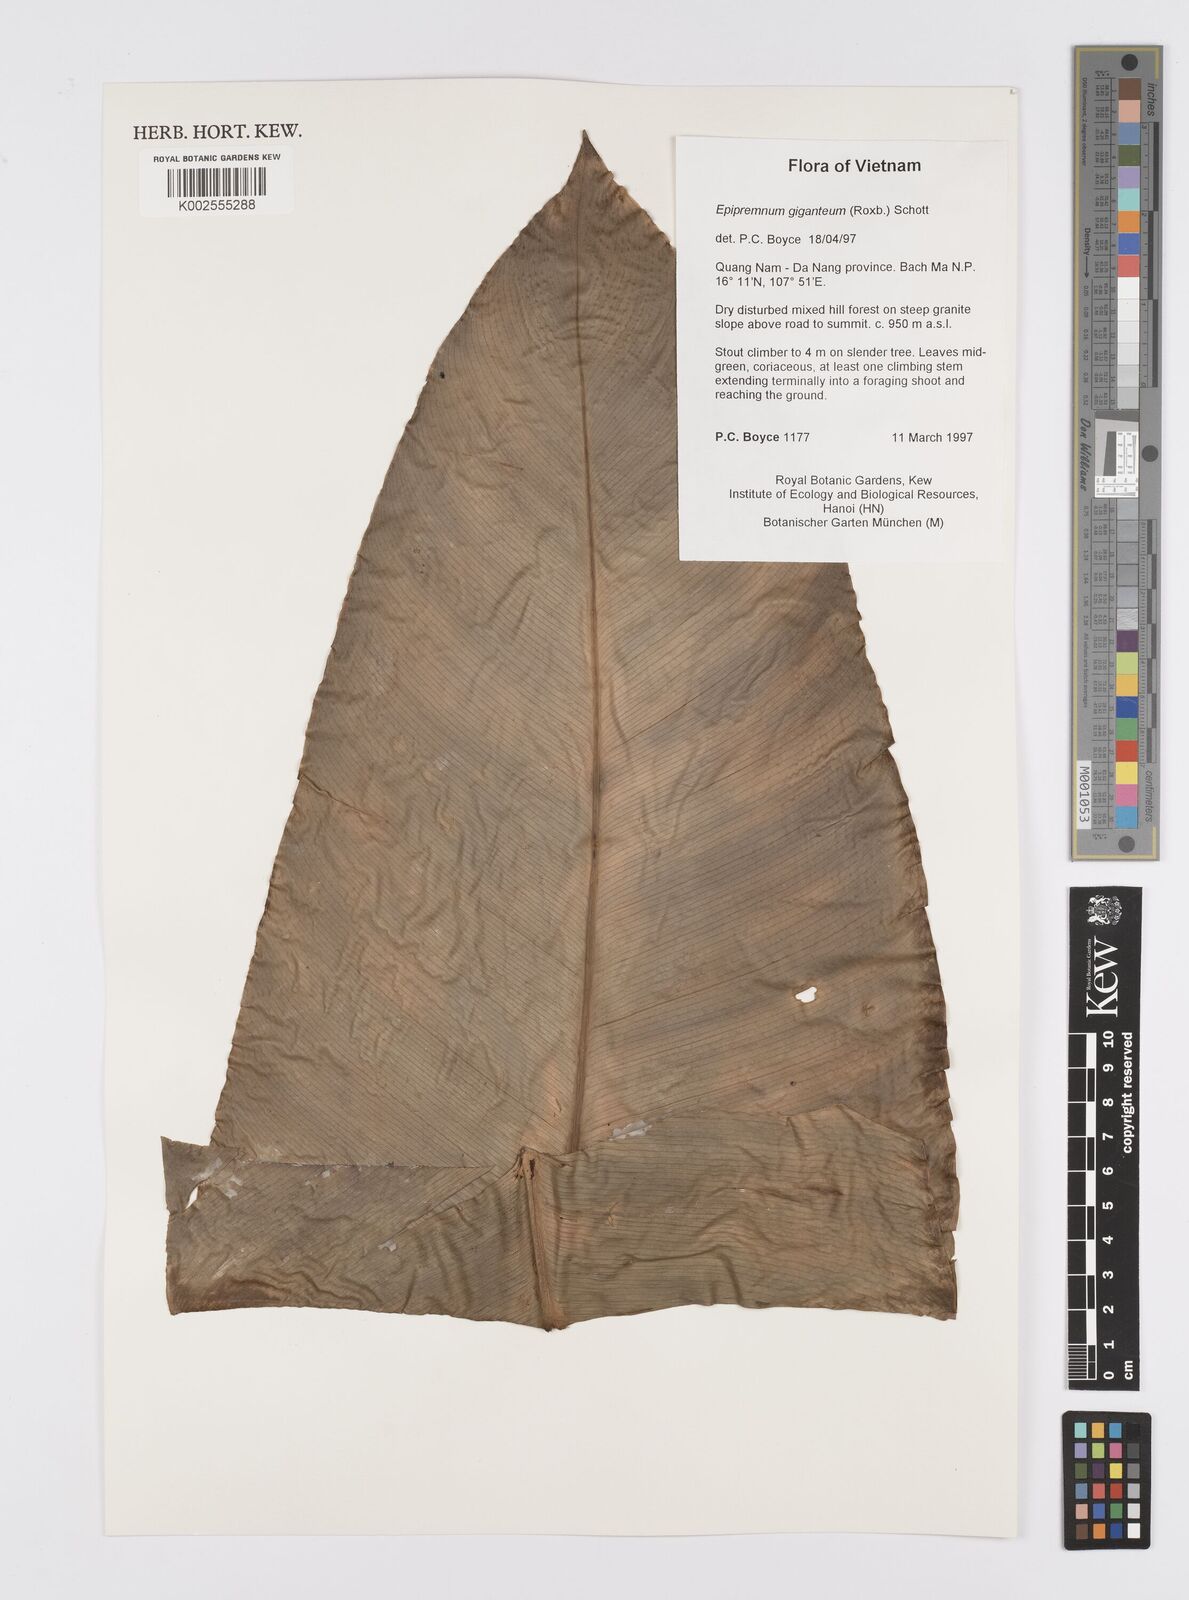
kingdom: Plantae
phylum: Tracheophyta
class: Liliopsida
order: Alismatales
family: Araceae
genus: Epipremnum
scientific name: Epipremnum giganteum
